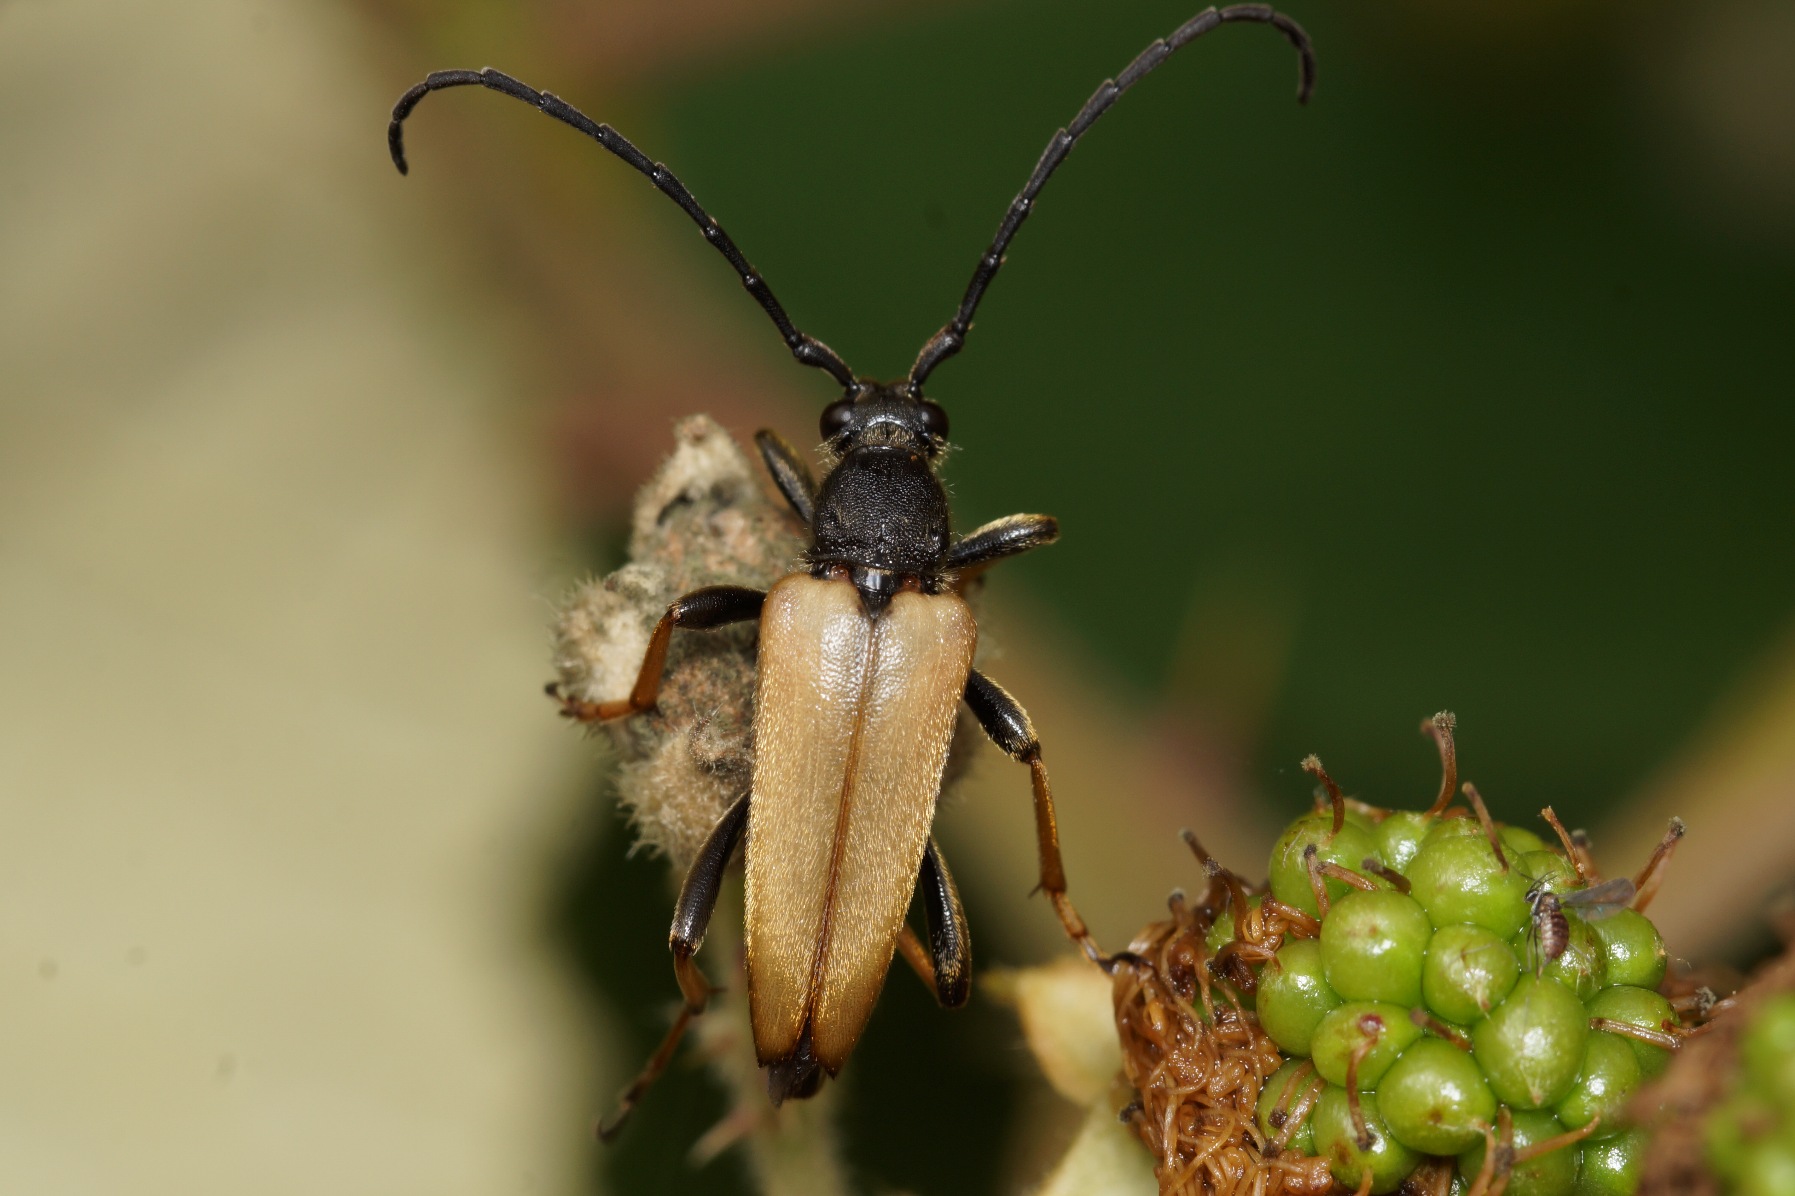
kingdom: Animalia
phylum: Arthropoda
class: Insecta
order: Coleoptera
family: Cerambycidae
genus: Stictoleptura
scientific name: Stictoleptura rubra
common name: Rød blomsterbuk
